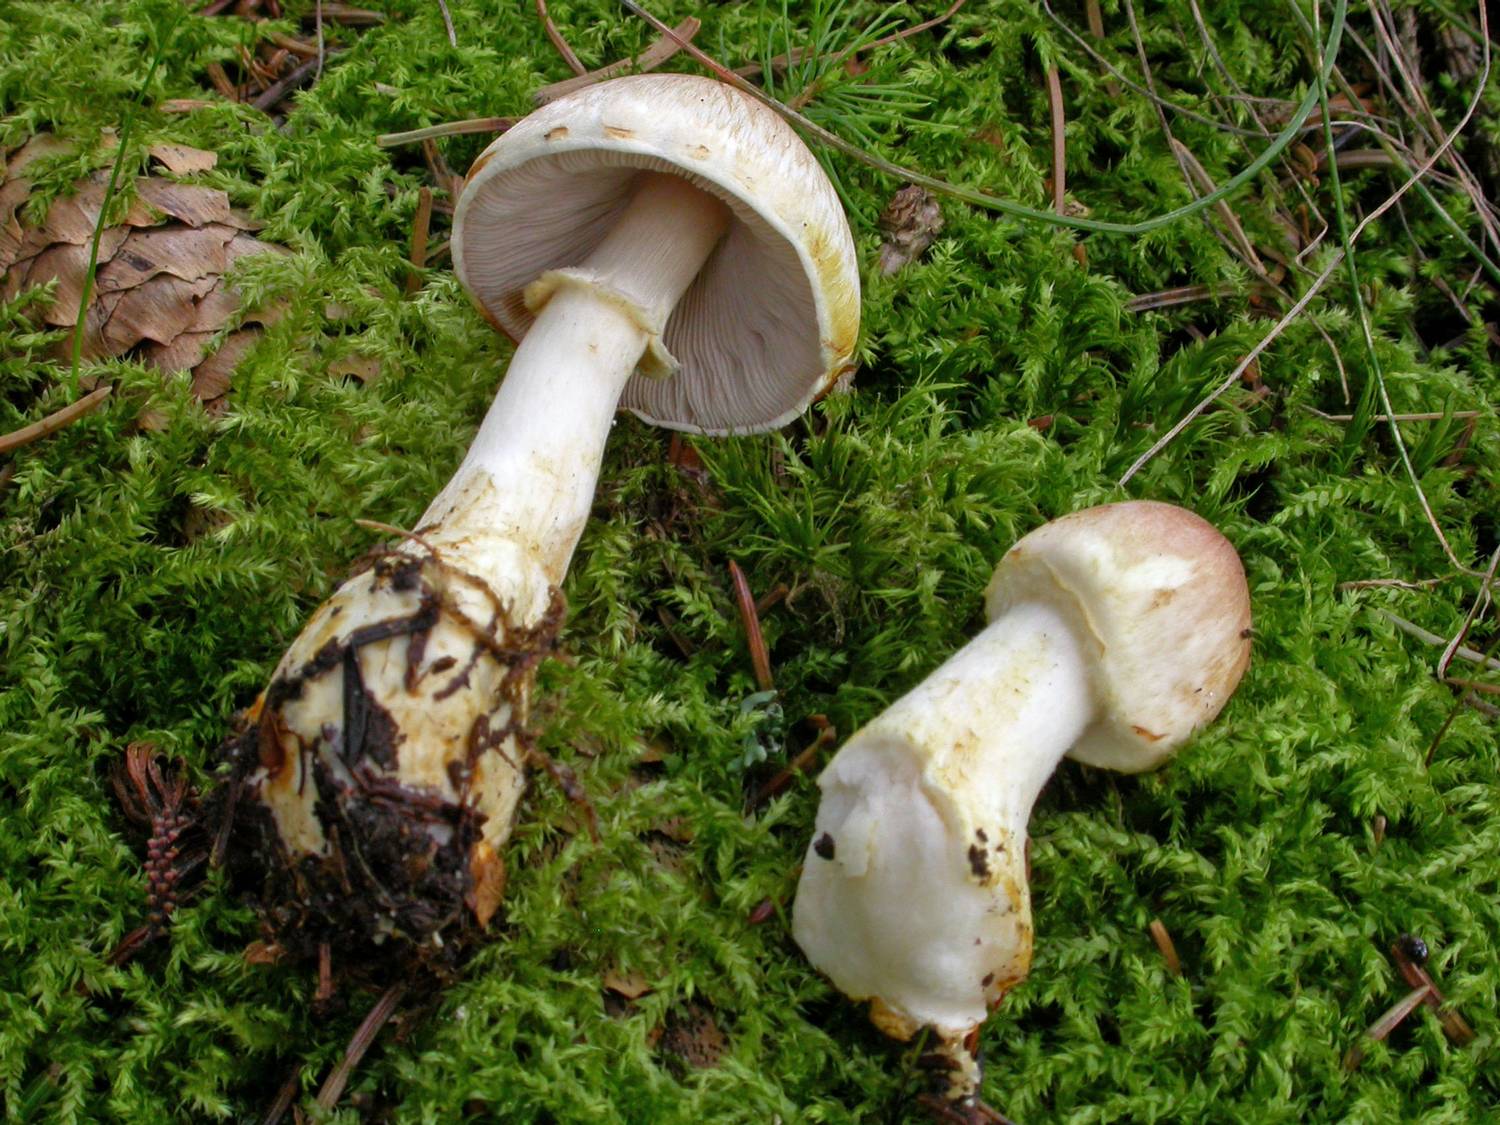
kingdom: Fungi
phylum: Basidiomycota
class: Agaricomycetes
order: Agaricales
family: Agaricaceae
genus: Agaricus
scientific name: Agaricus dulcidulus
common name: blegrød champignon
